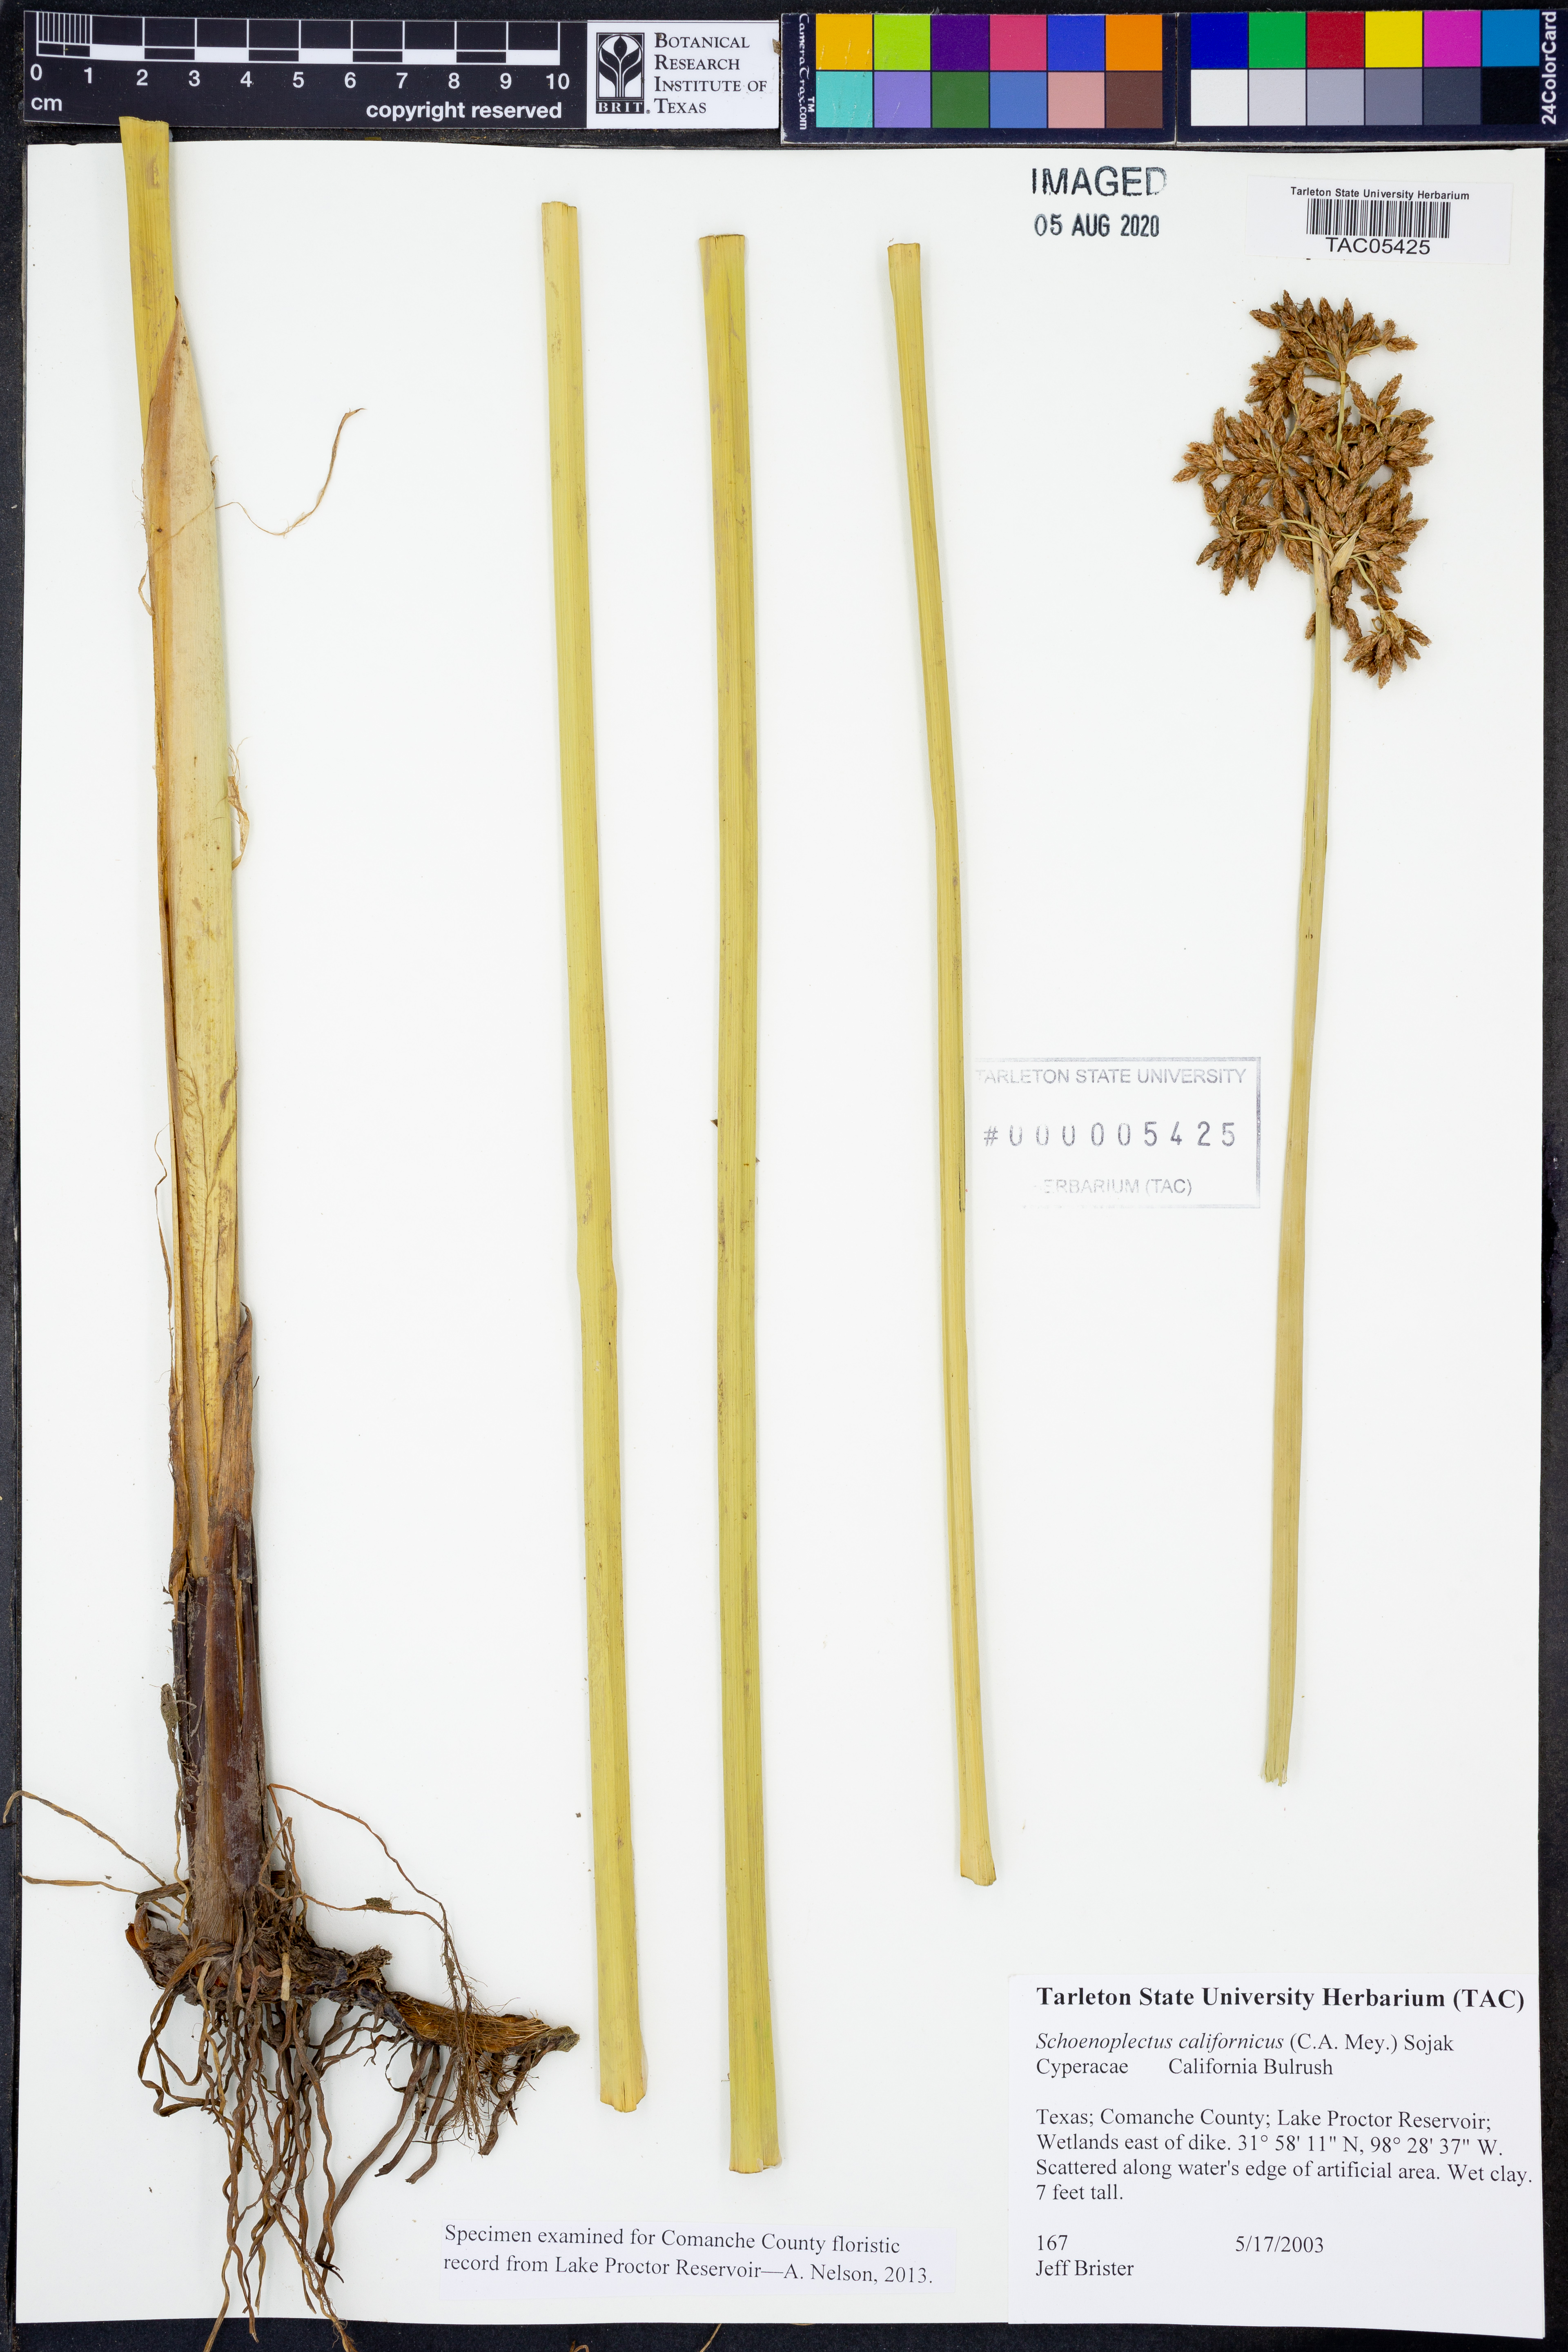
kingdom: Plantae
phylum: Tracheophyta
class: Liliopsida
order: Poales
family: Cyperaceae
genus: Schoenoplectus
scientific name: Schoenoplectus californicus
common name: California bulrush
